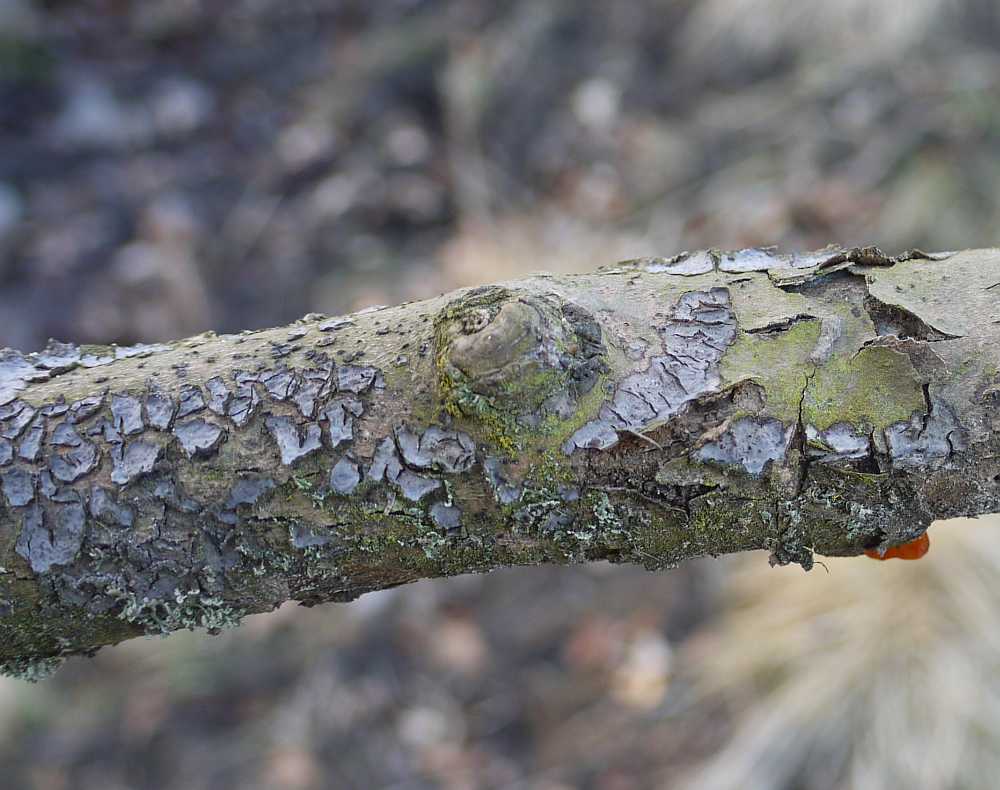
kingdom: Fungi
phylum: Basidiomycota
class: Agaricomycetes
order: Russulales
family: Peniophoraceae
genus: Peniophora
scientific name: Peniophora quercina
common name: ege-voksskind
